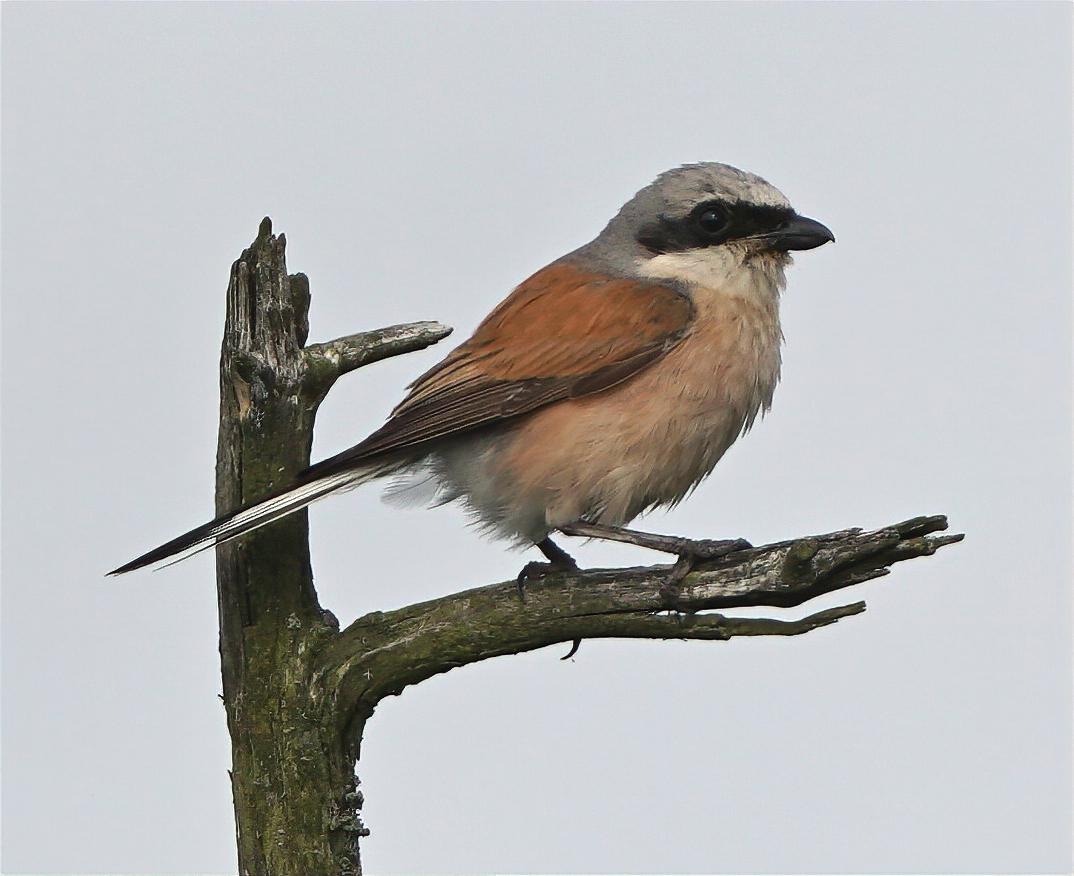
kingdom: Animalia
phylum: Chordata
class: Aves
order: Passeriformes
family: Laniidae
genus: Lanius
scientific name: Lanius collurio
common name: Rødrygget tornskade
